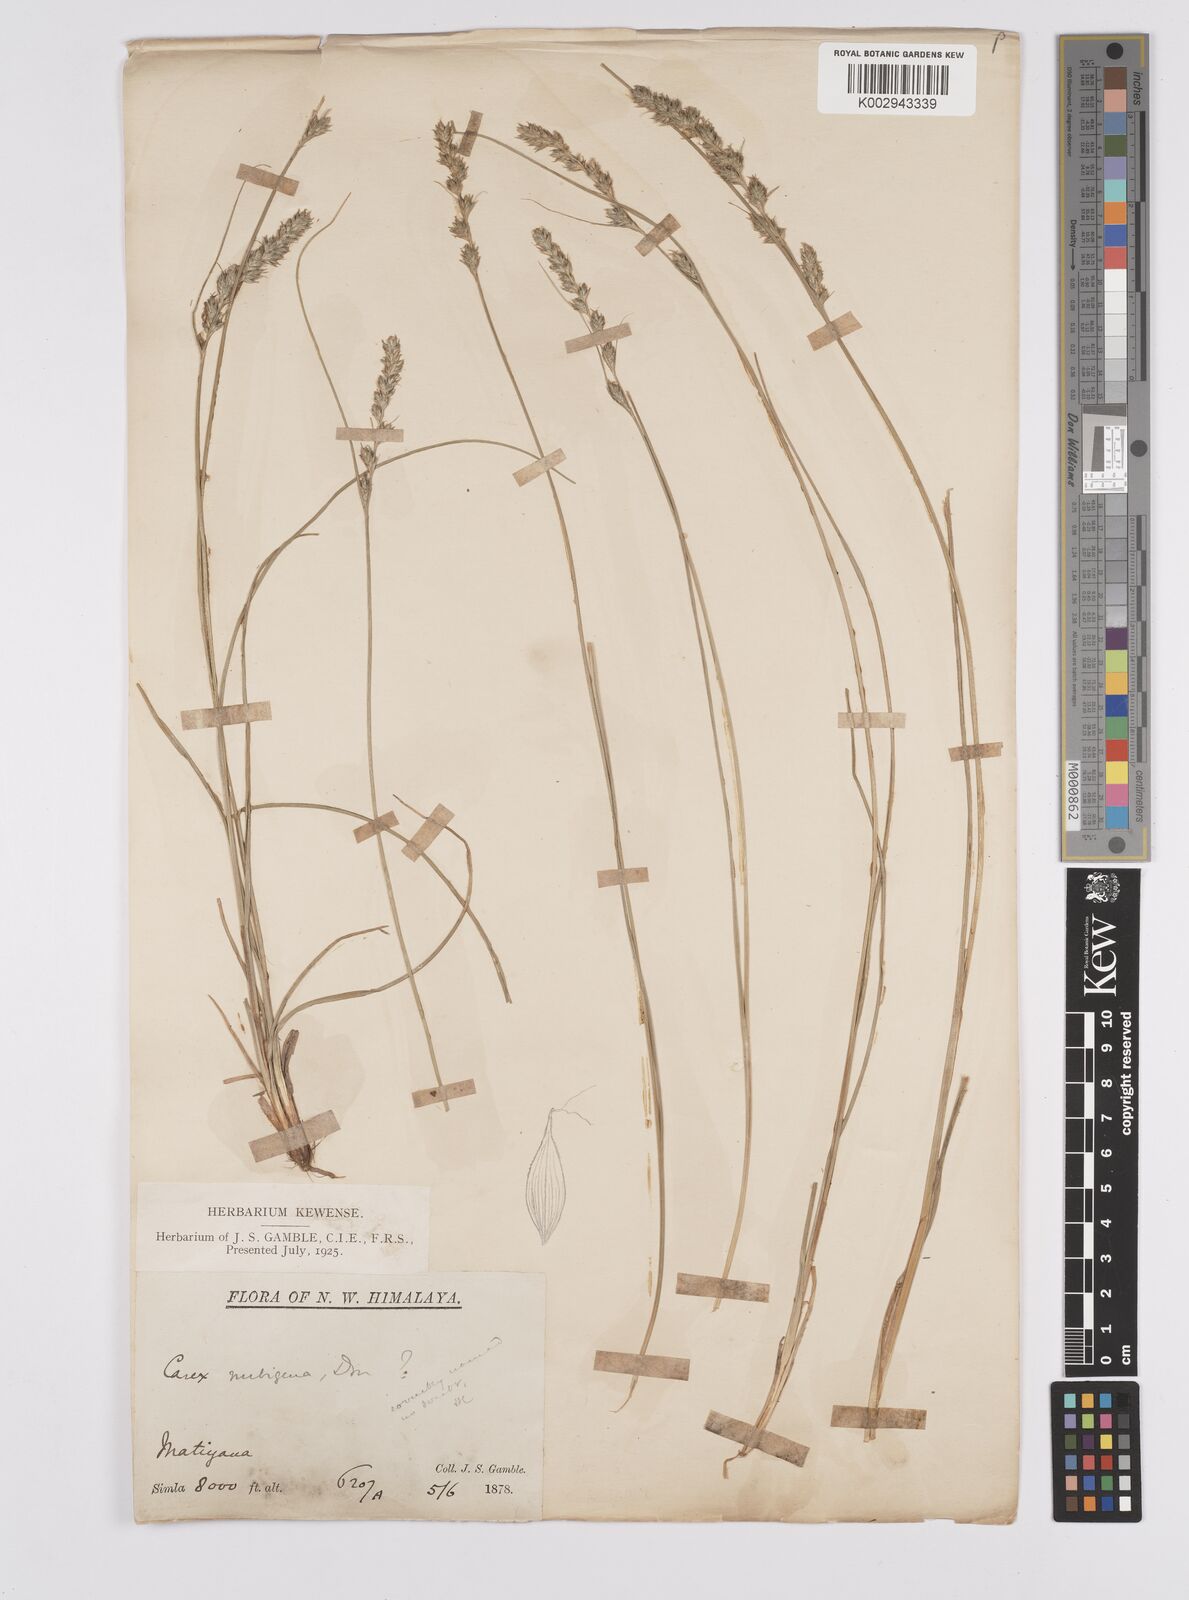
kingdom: Plantae
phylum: Tracheophyta
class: Liliopsida
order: Poales
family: Cyperaceae
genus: Carex
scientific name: Carex nubigena
